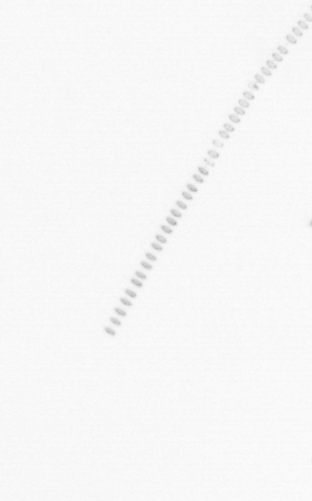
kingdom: Chromista
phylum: Ochrophyta
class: Bacillariophyceae
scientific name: Bacillariophyceae
